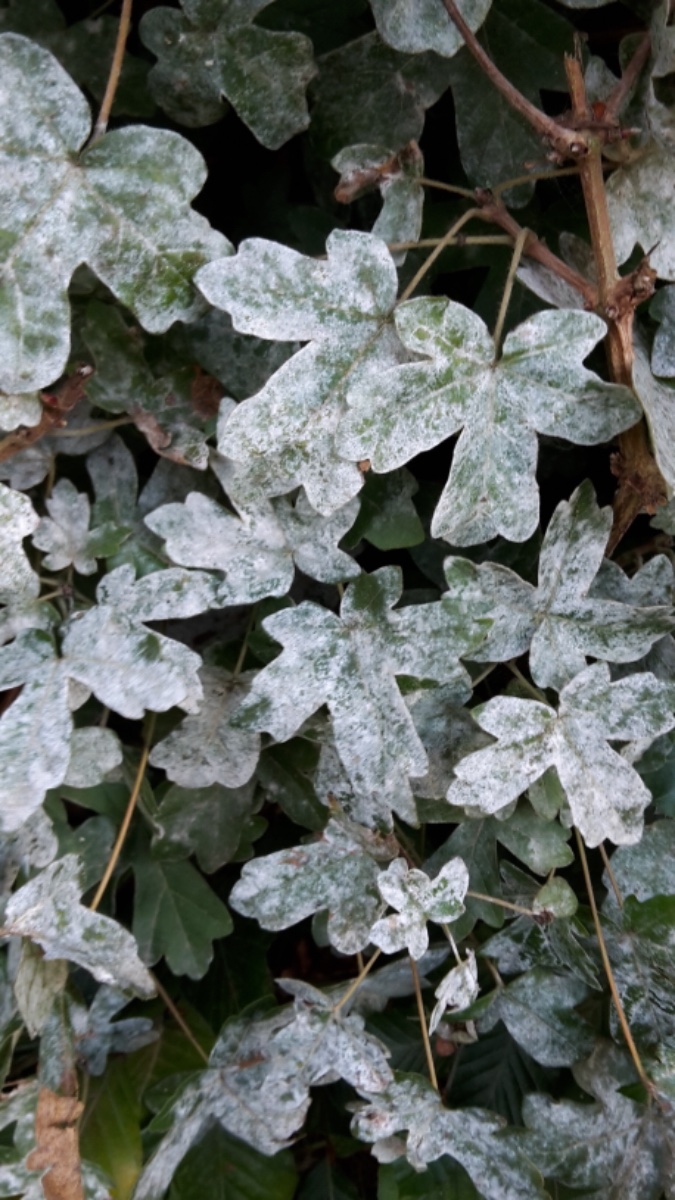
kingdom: Fungi
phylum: Ascomycota
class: Leotiomycetes
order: Helotiales
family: Erysiphaceae
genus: Sawadaea
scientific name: Sawadaea bicornis
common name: Maple mildew
